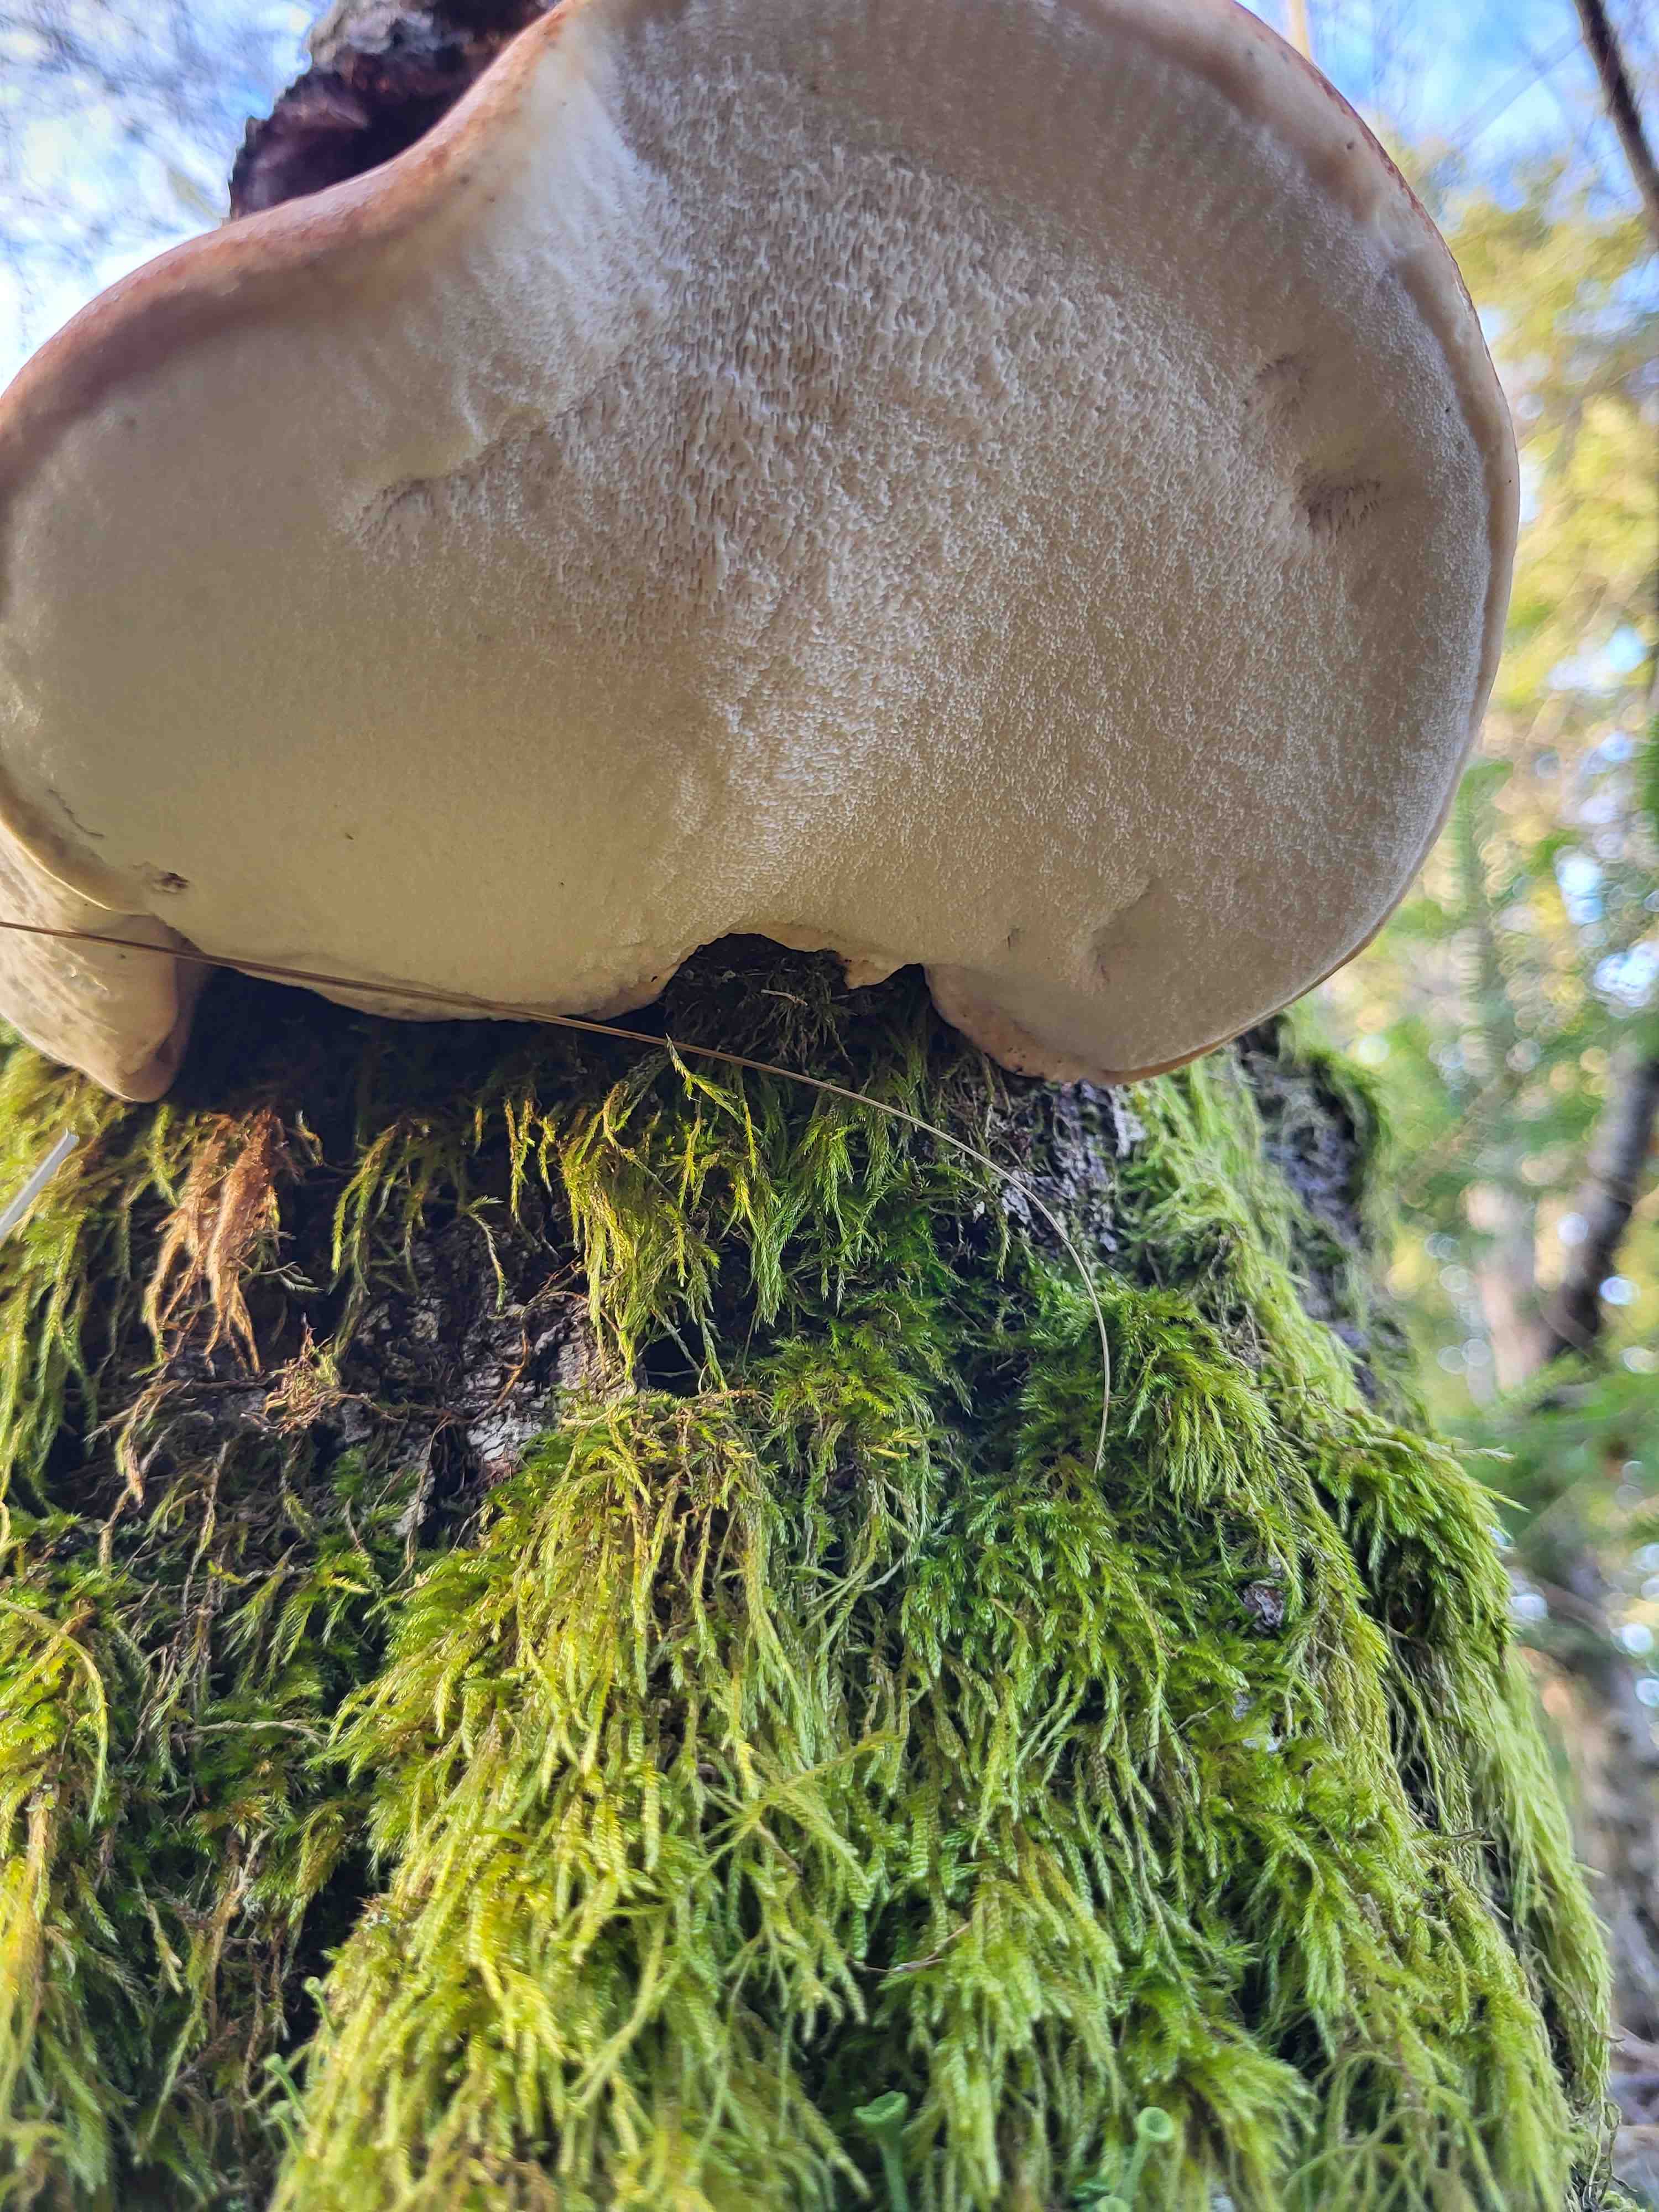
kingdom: Fungi
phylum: Basidiomycota
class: Agaricomycetes
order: Polyporales
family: Fomitopsidaceae
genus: Fomitopsis
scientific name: Fomitopsis betulina
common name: birkeporesvamp
